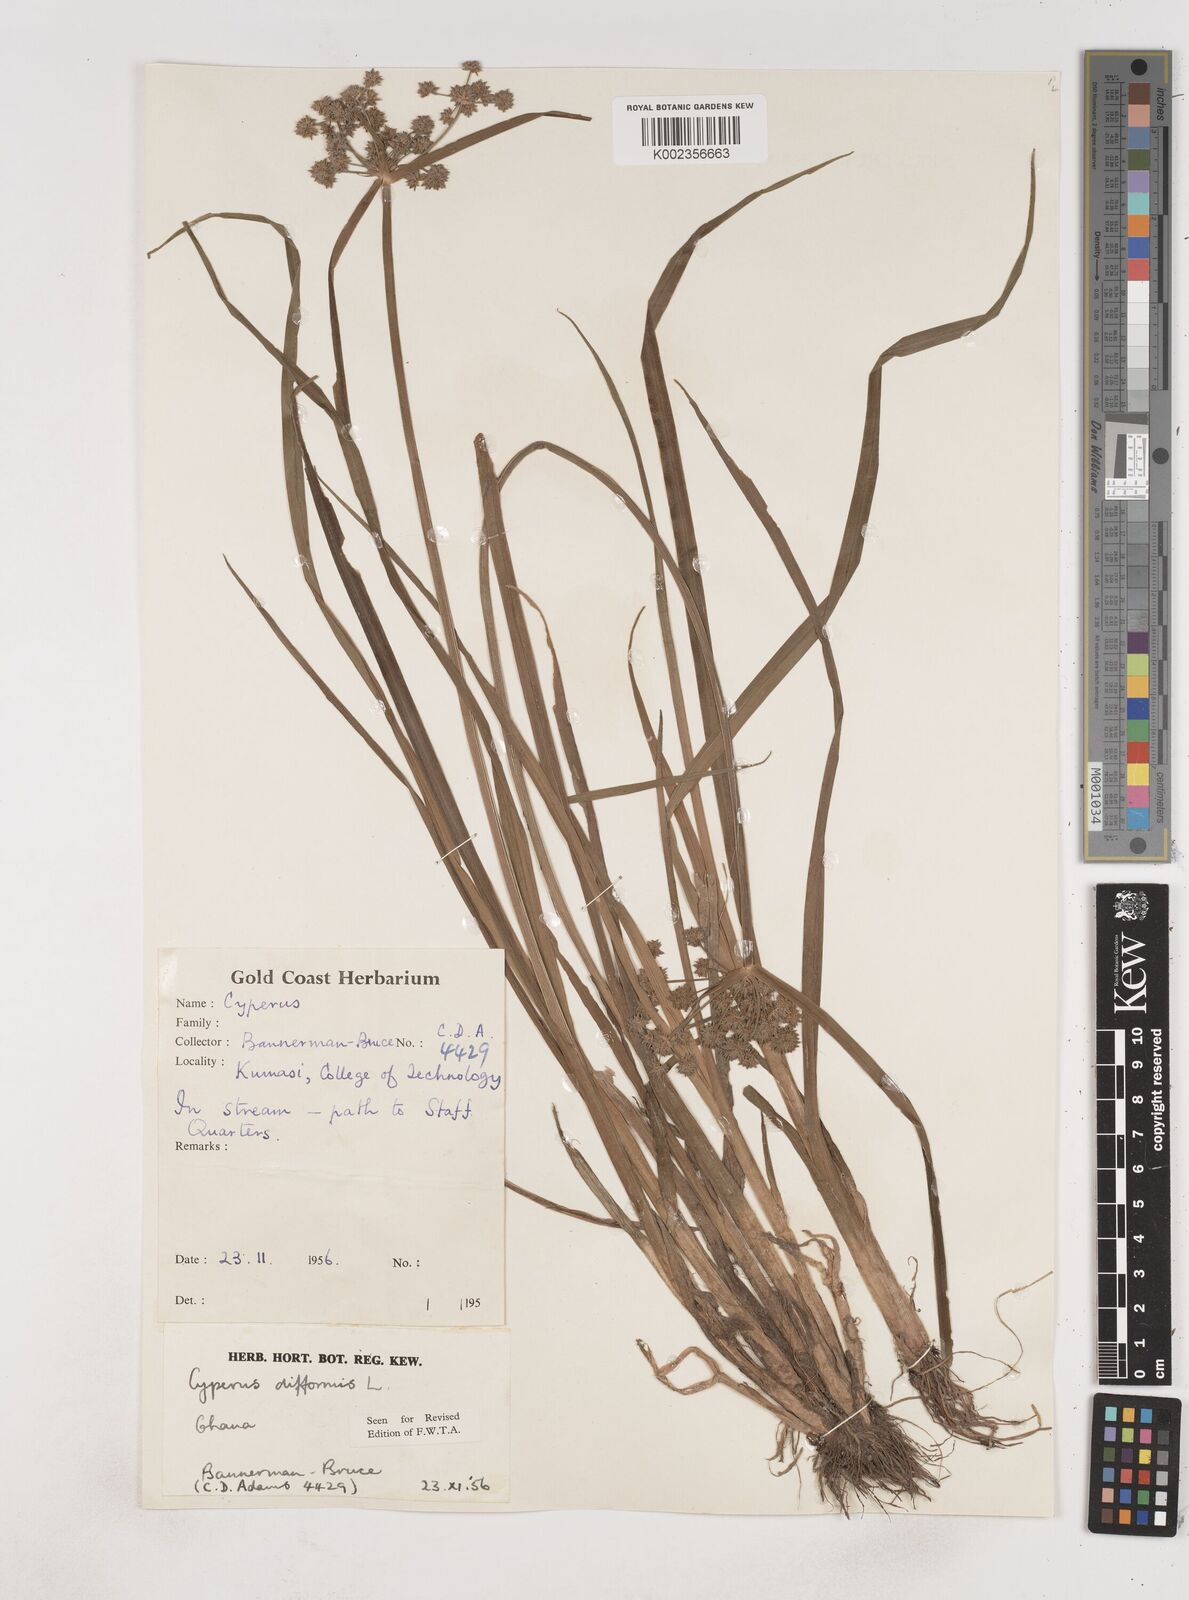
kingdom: Plantae
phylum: Tracheophyta
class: Liliopsida
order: Poales
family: Cyperaceae
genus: Cyperus
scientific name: Cyperus difformis
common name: Variable flatsedge
